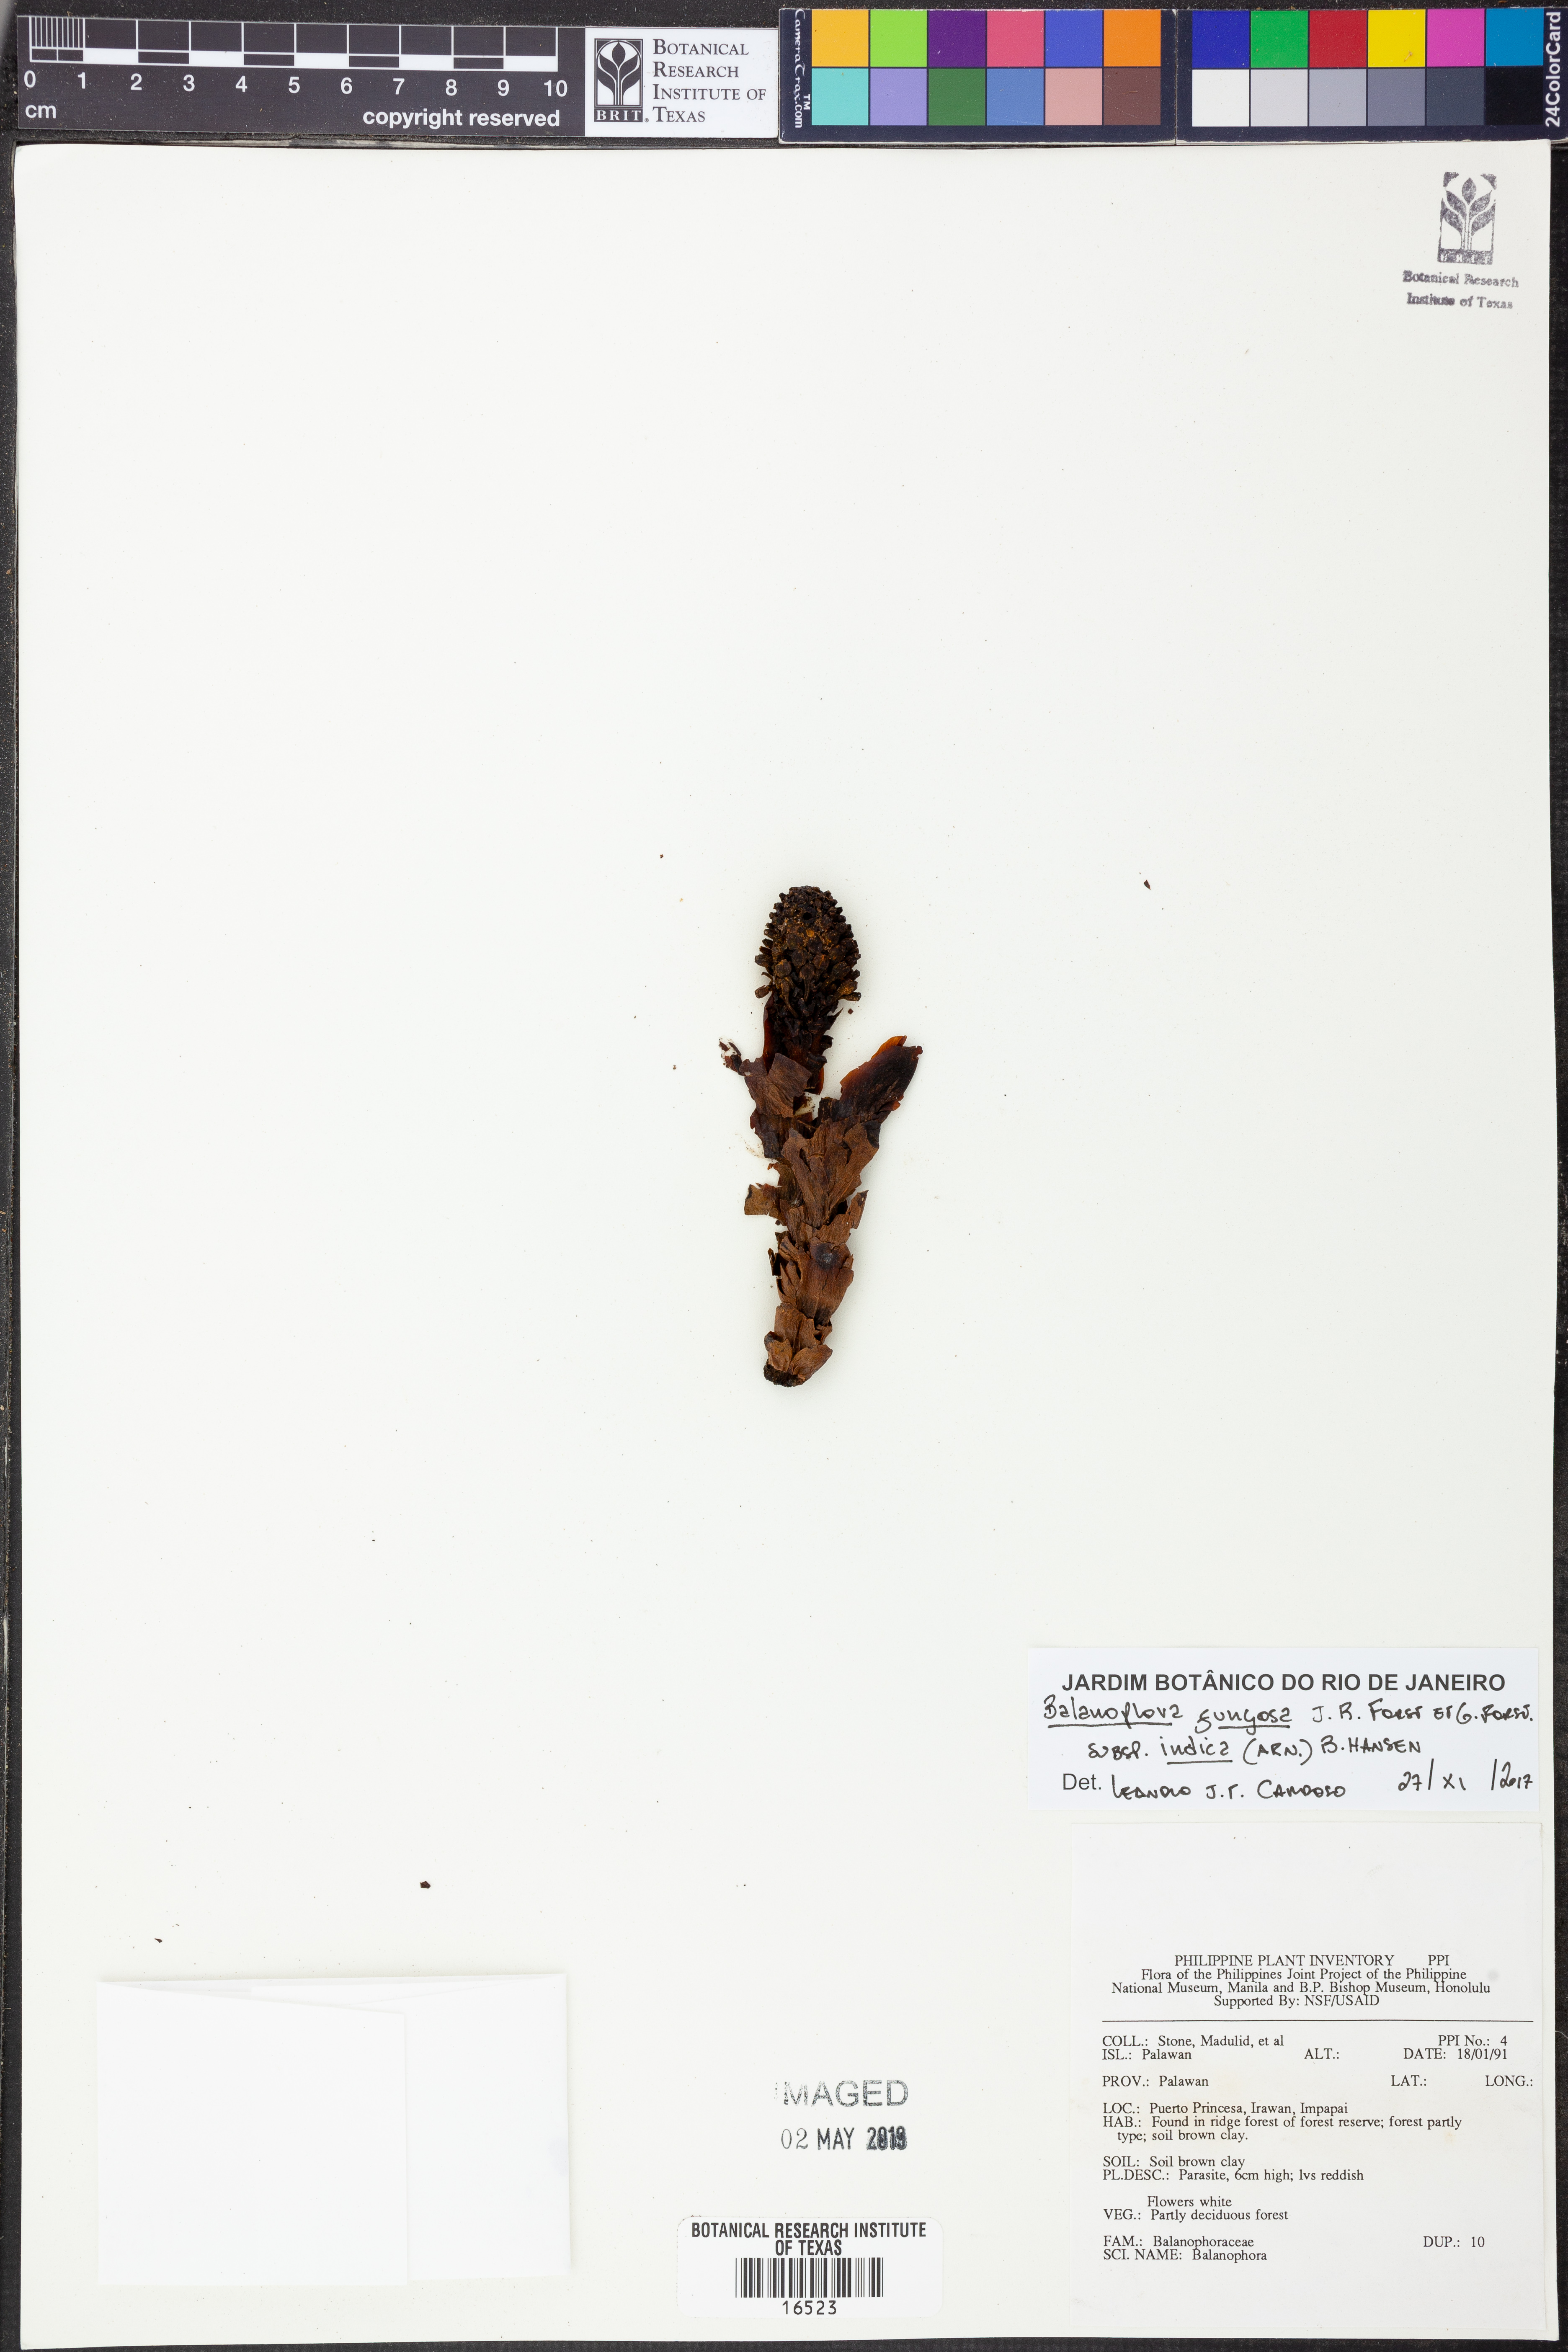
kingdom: Plantae
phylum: Tracheophyta
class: Magnoliopsida
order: Santalales
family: Balanophoraceae
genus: Balanophora
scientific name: Balanophora fungosa
